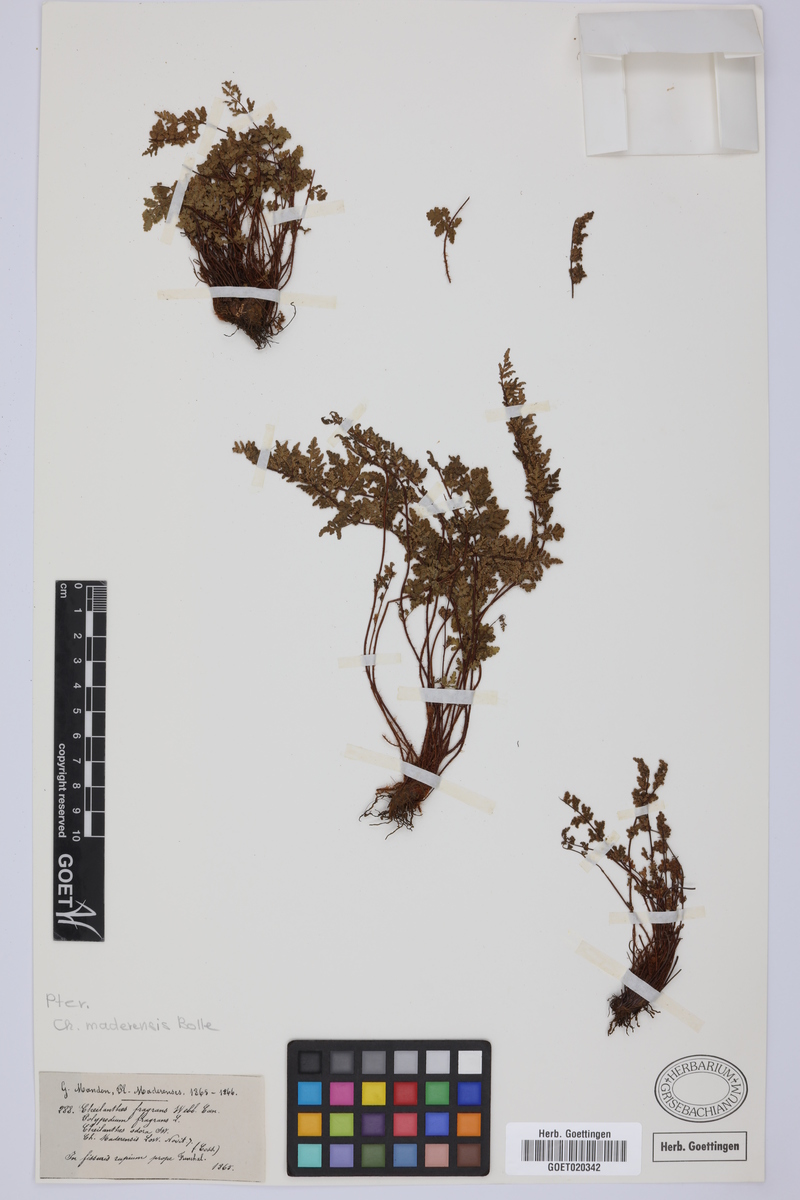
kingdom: Plantae
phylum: Tracheophyta
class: Polypodiopsida
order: Polypodiales
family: Pteridaceae
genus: Oeosporangium
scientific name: Oeosporangium pteridioides
